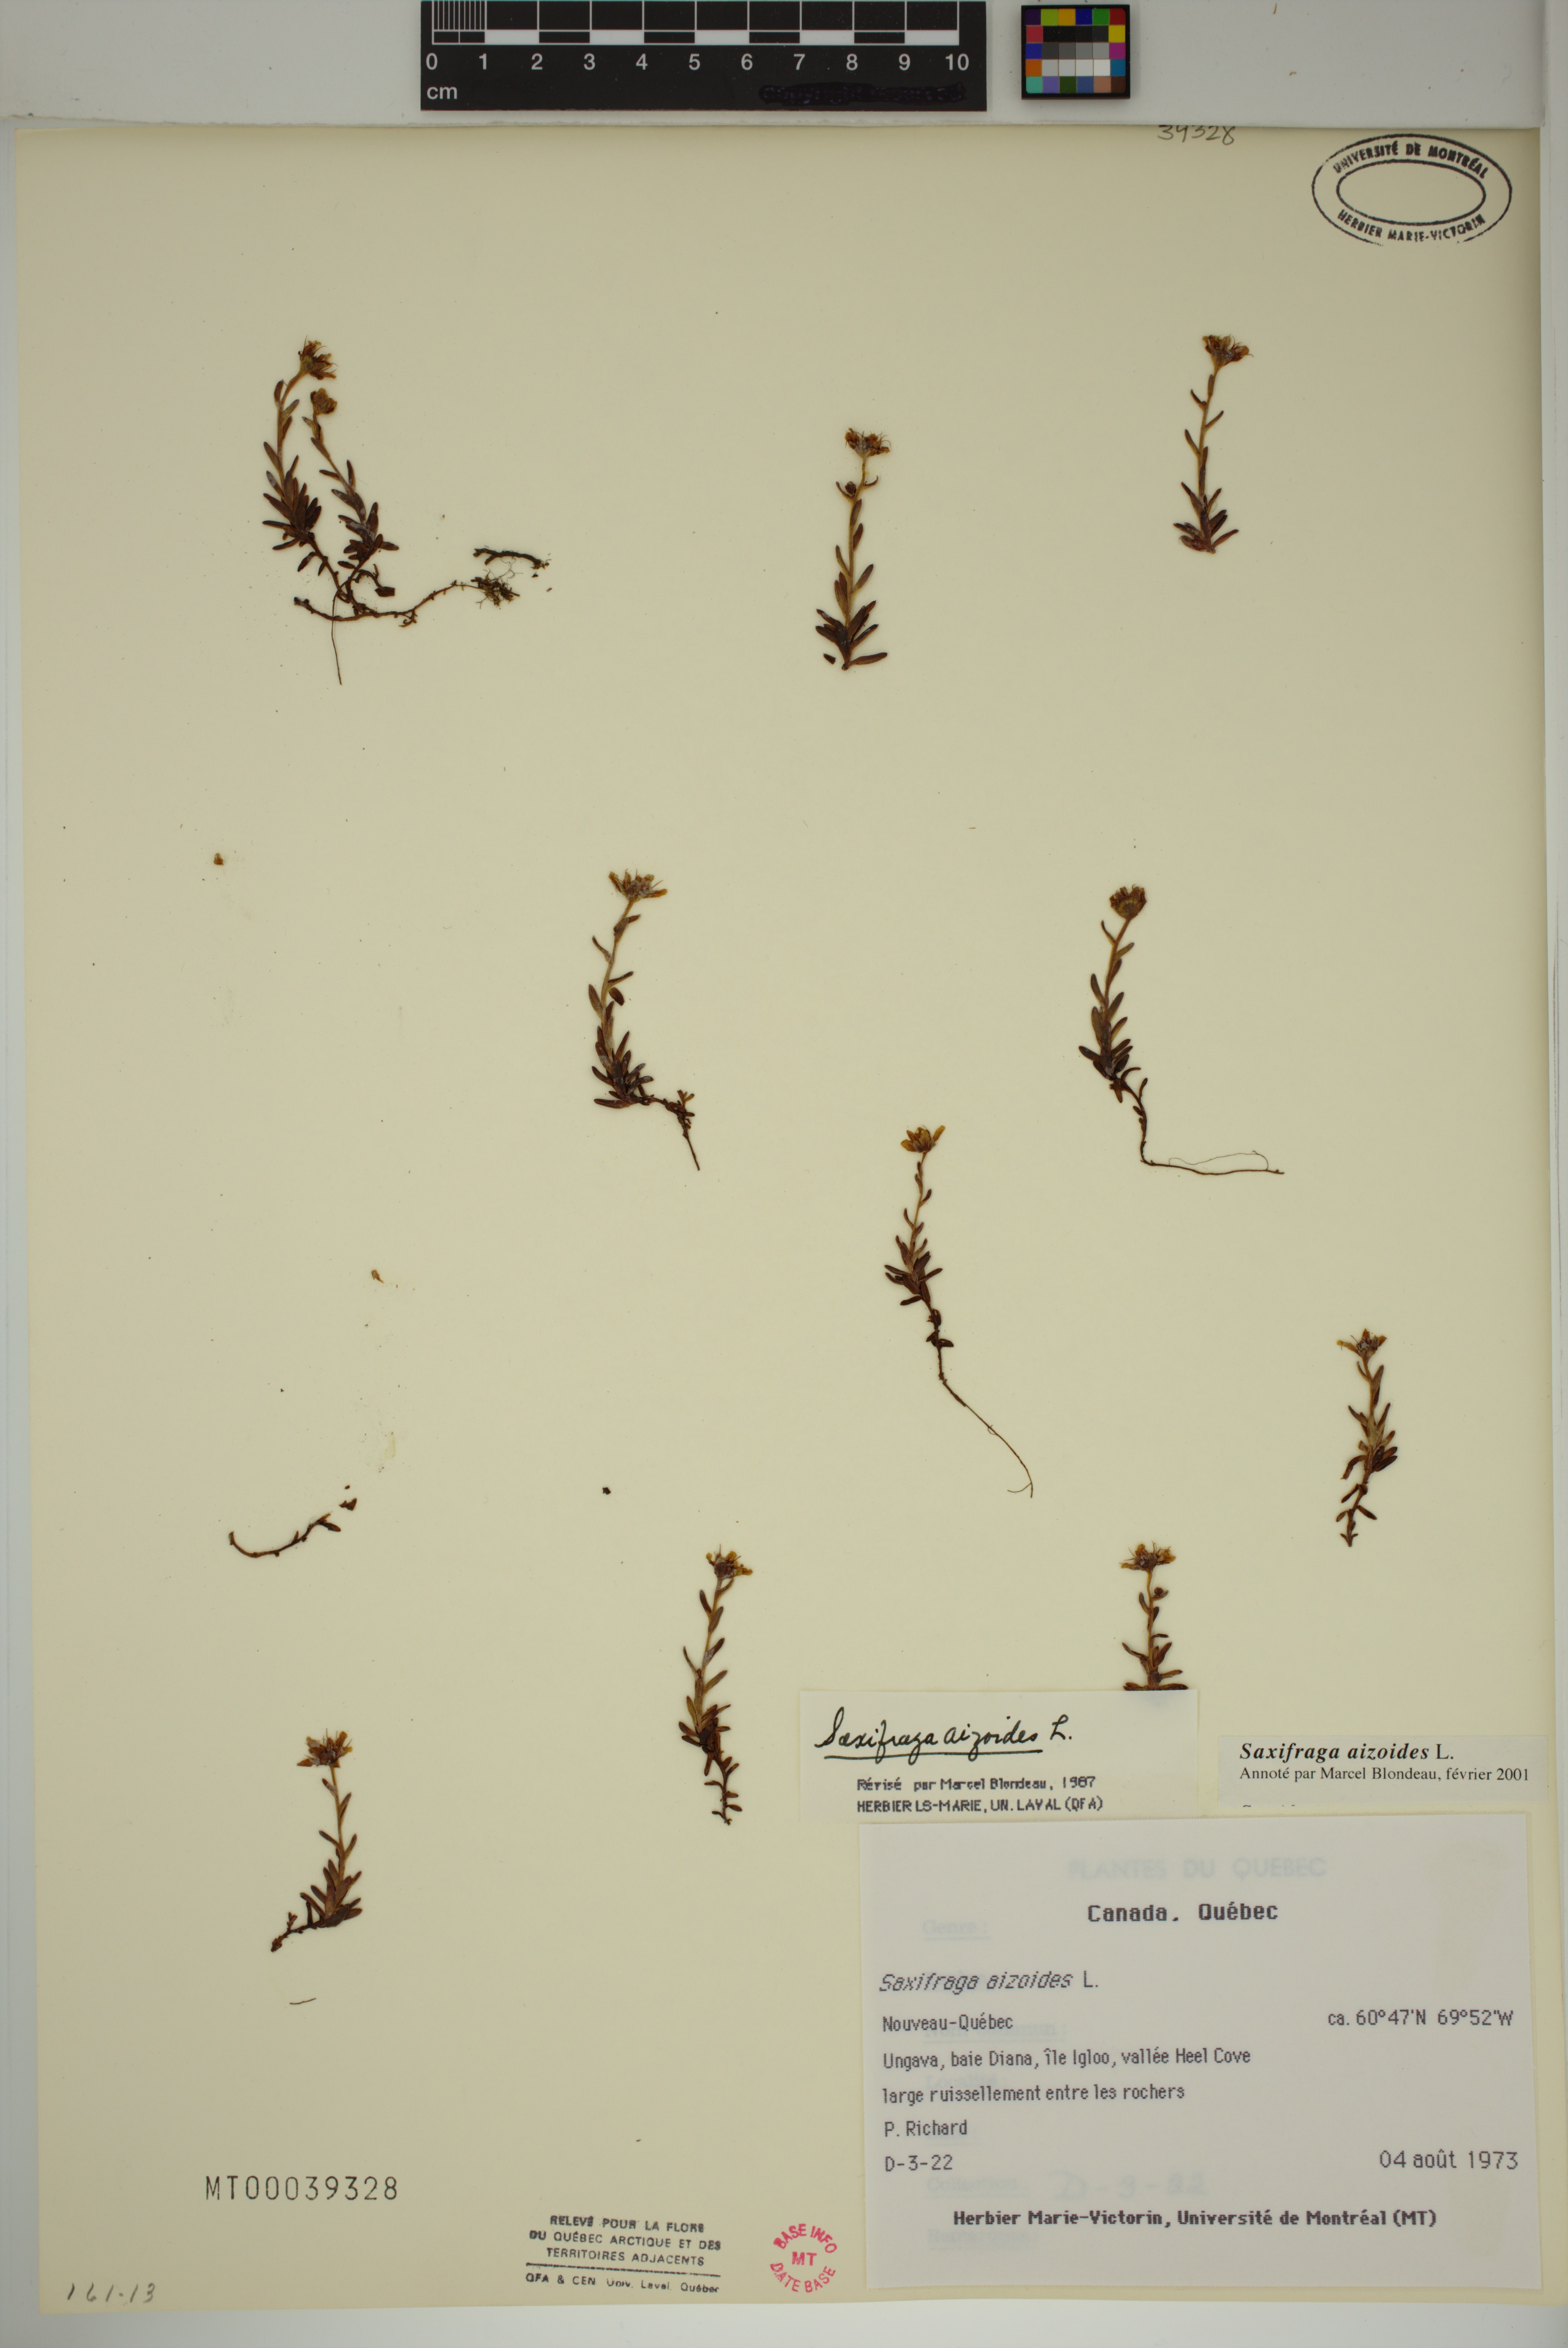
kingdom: Plantae
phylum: Tracheophyta
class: Magnoliopsida
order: Saxifragales
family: Saxifragaceae
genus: Saxifraga
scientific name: Saxifraga aizoides
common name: Yellow mountain saxifrage
